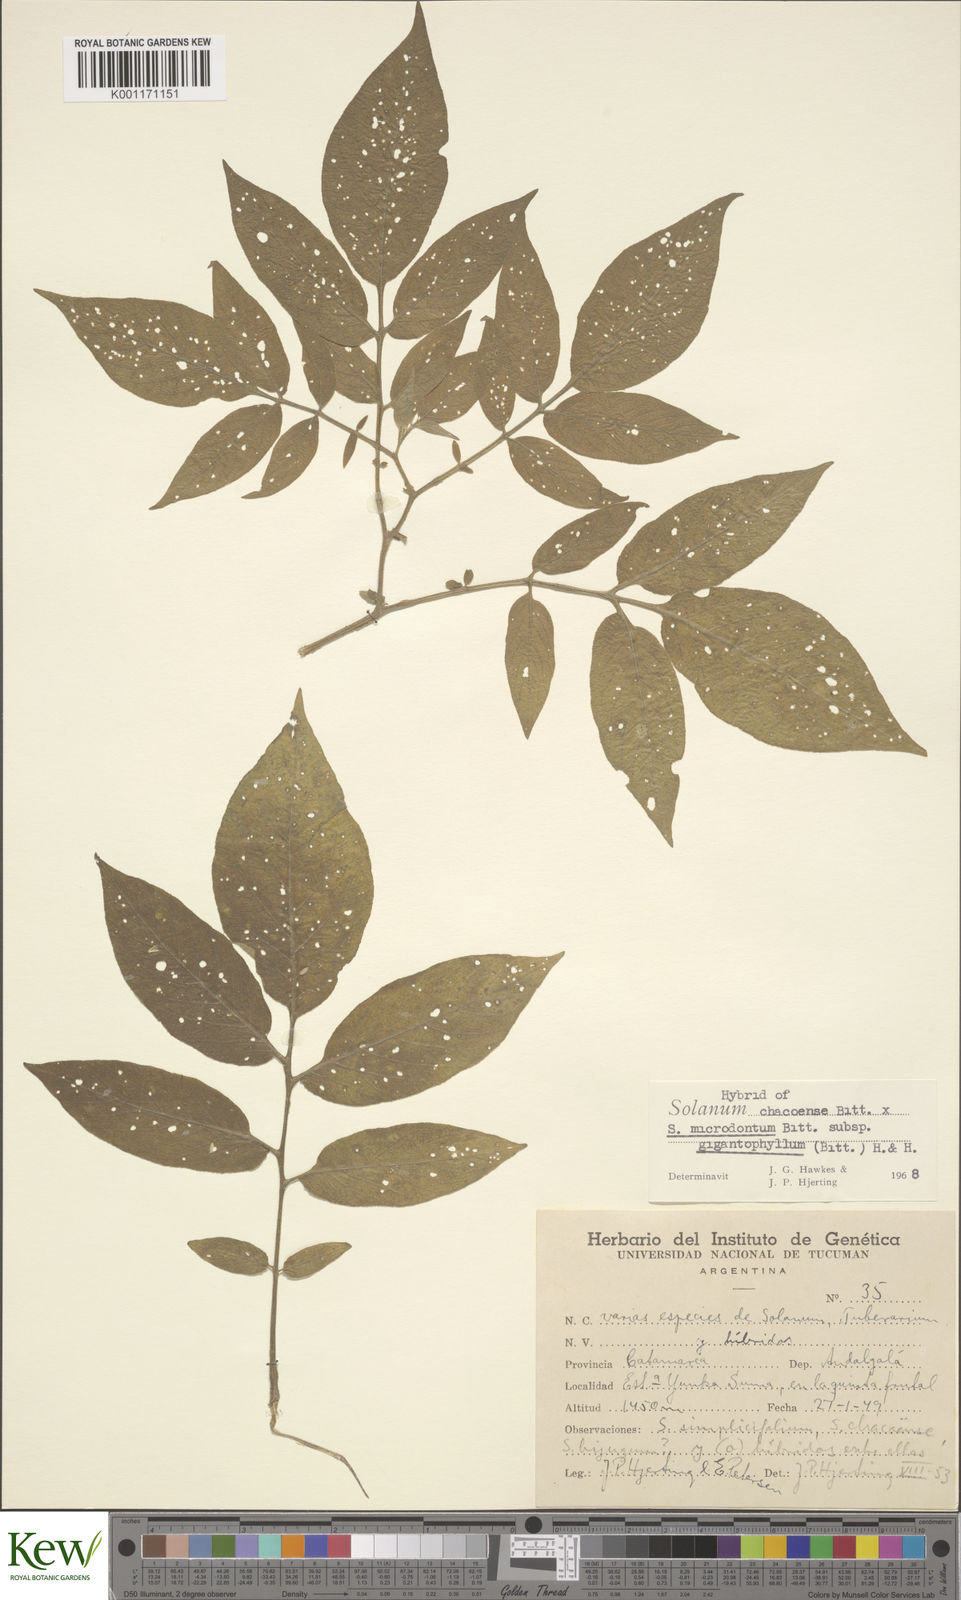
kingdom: Plantae
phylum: Tracheophyta
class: Magnoliopsida
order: Solanales
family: Solanaceae
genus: Solanum
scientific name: Solanum microdontum
